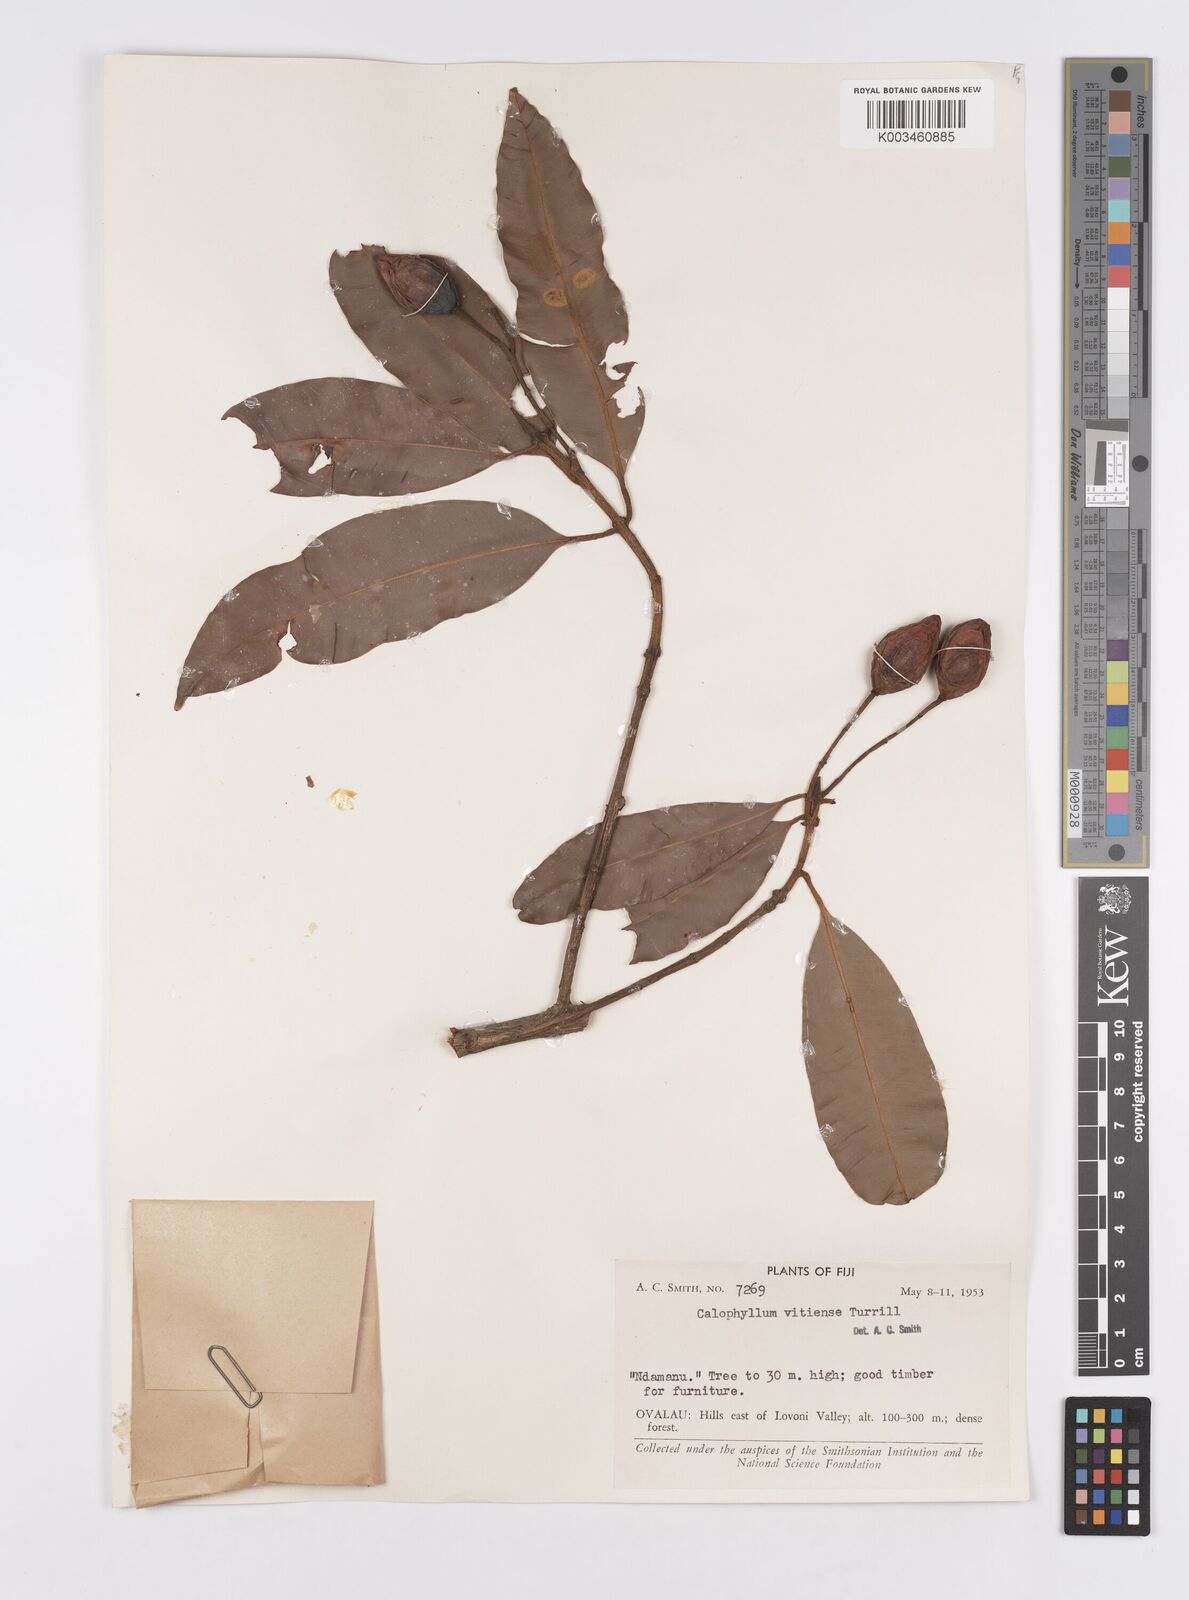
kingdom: Plantae
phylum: Tracheophyta
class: Magnoliopsida
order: Malpighiales
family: Calophyllaceae
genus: Calophyllum
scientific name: Calophyllum vitiense
